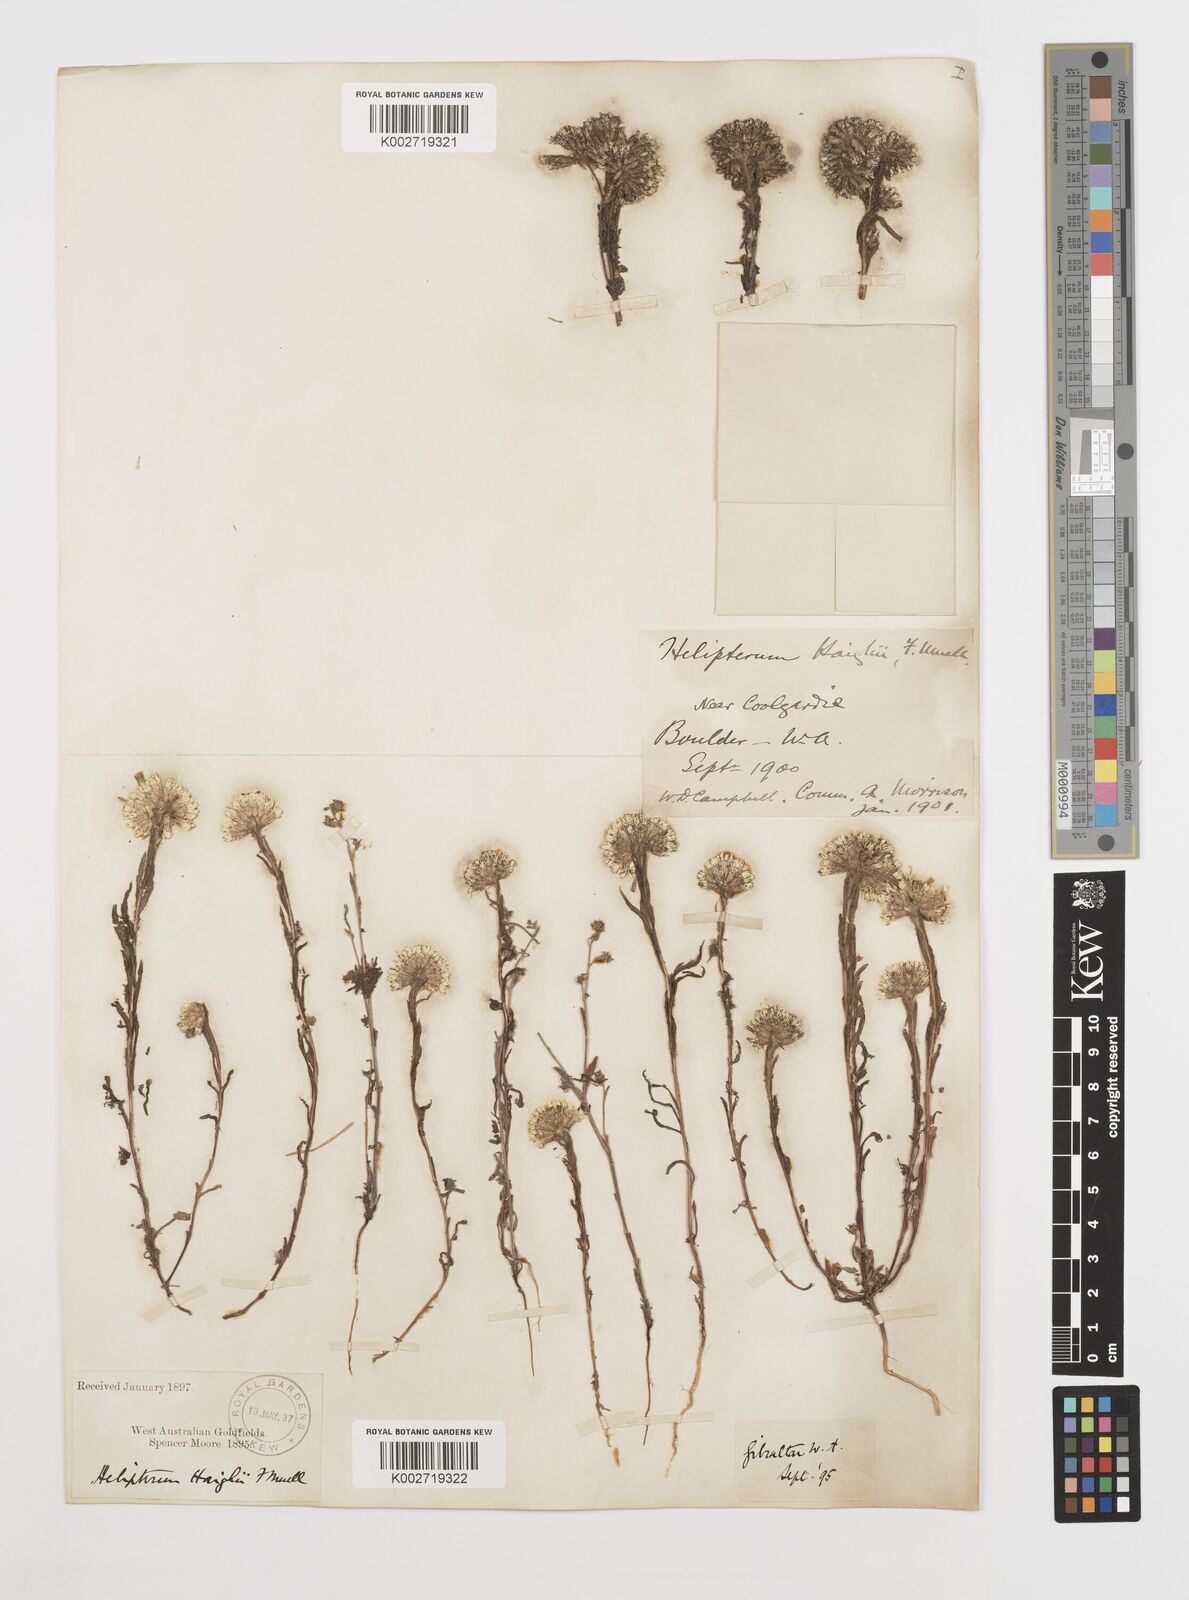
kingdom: Plantae
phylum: Tracheophyta
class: Magnoliopsida
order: Asterales
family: Asteraceae
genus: Rhodanthe
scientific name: Rhodanthe haigii
